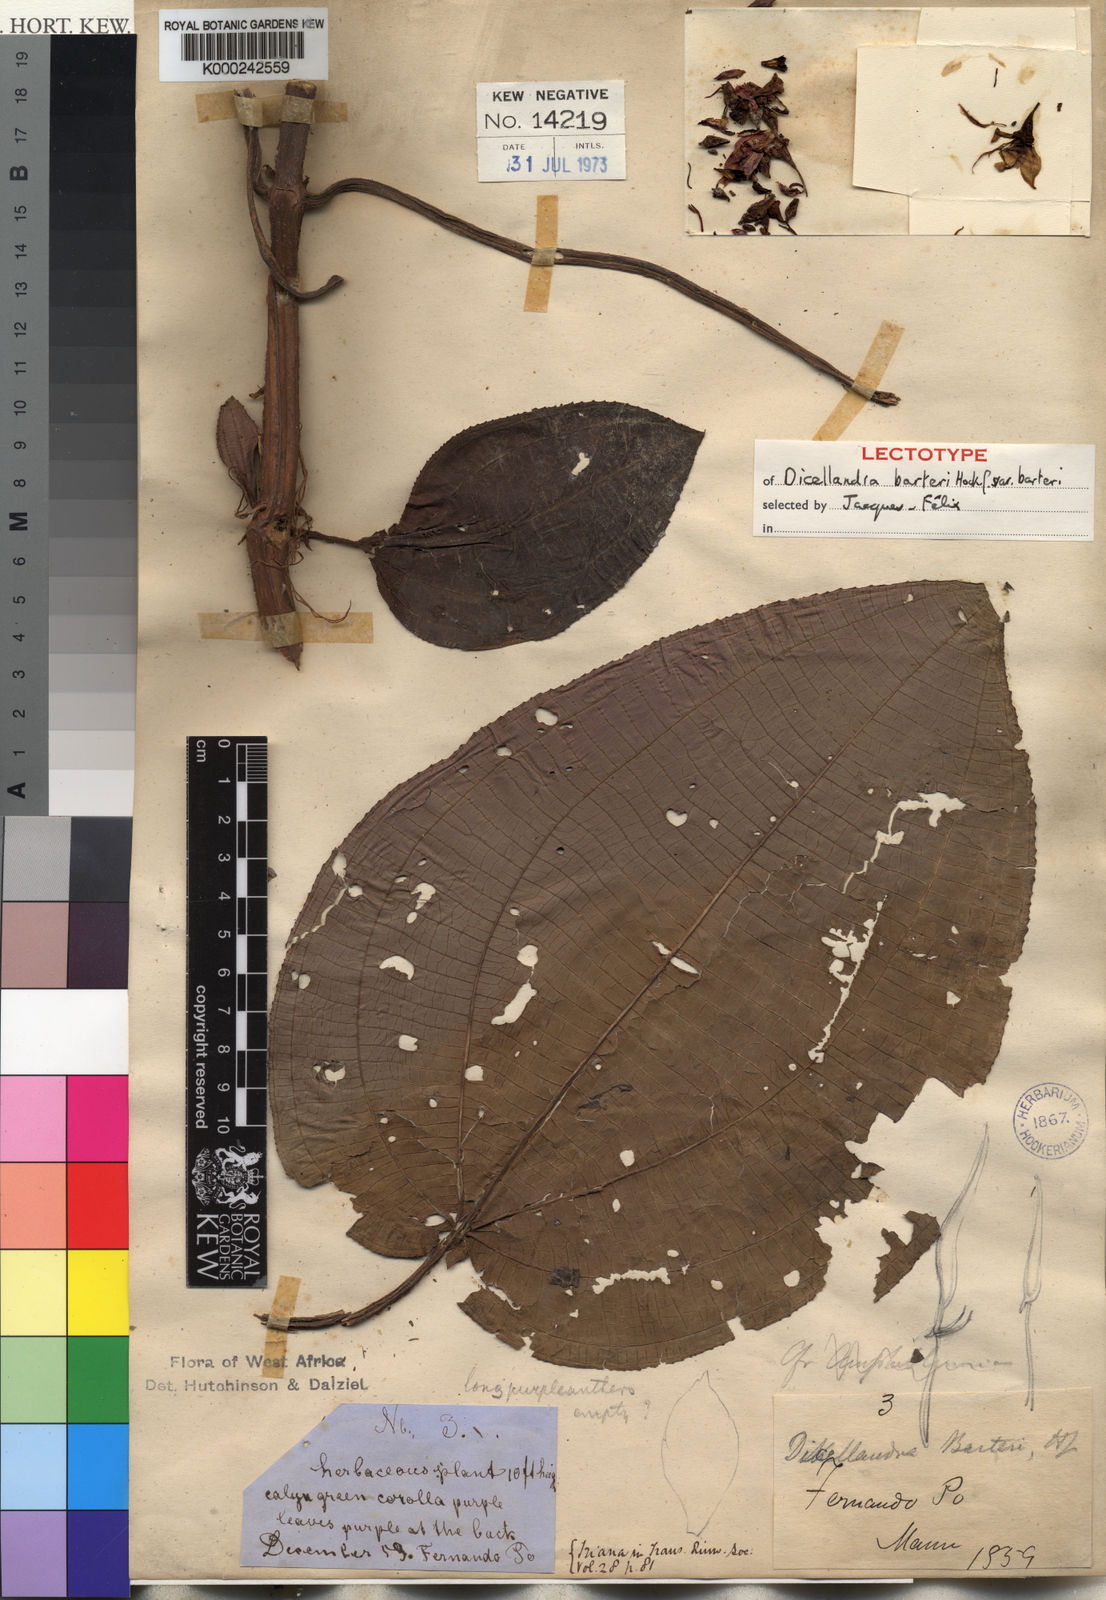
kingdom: Plantae
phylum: Tracheophyta
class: Magnoliopsida
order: Myrtales
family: Melastomataceae
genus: Dicellandra
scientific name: Dicellandra barteri
